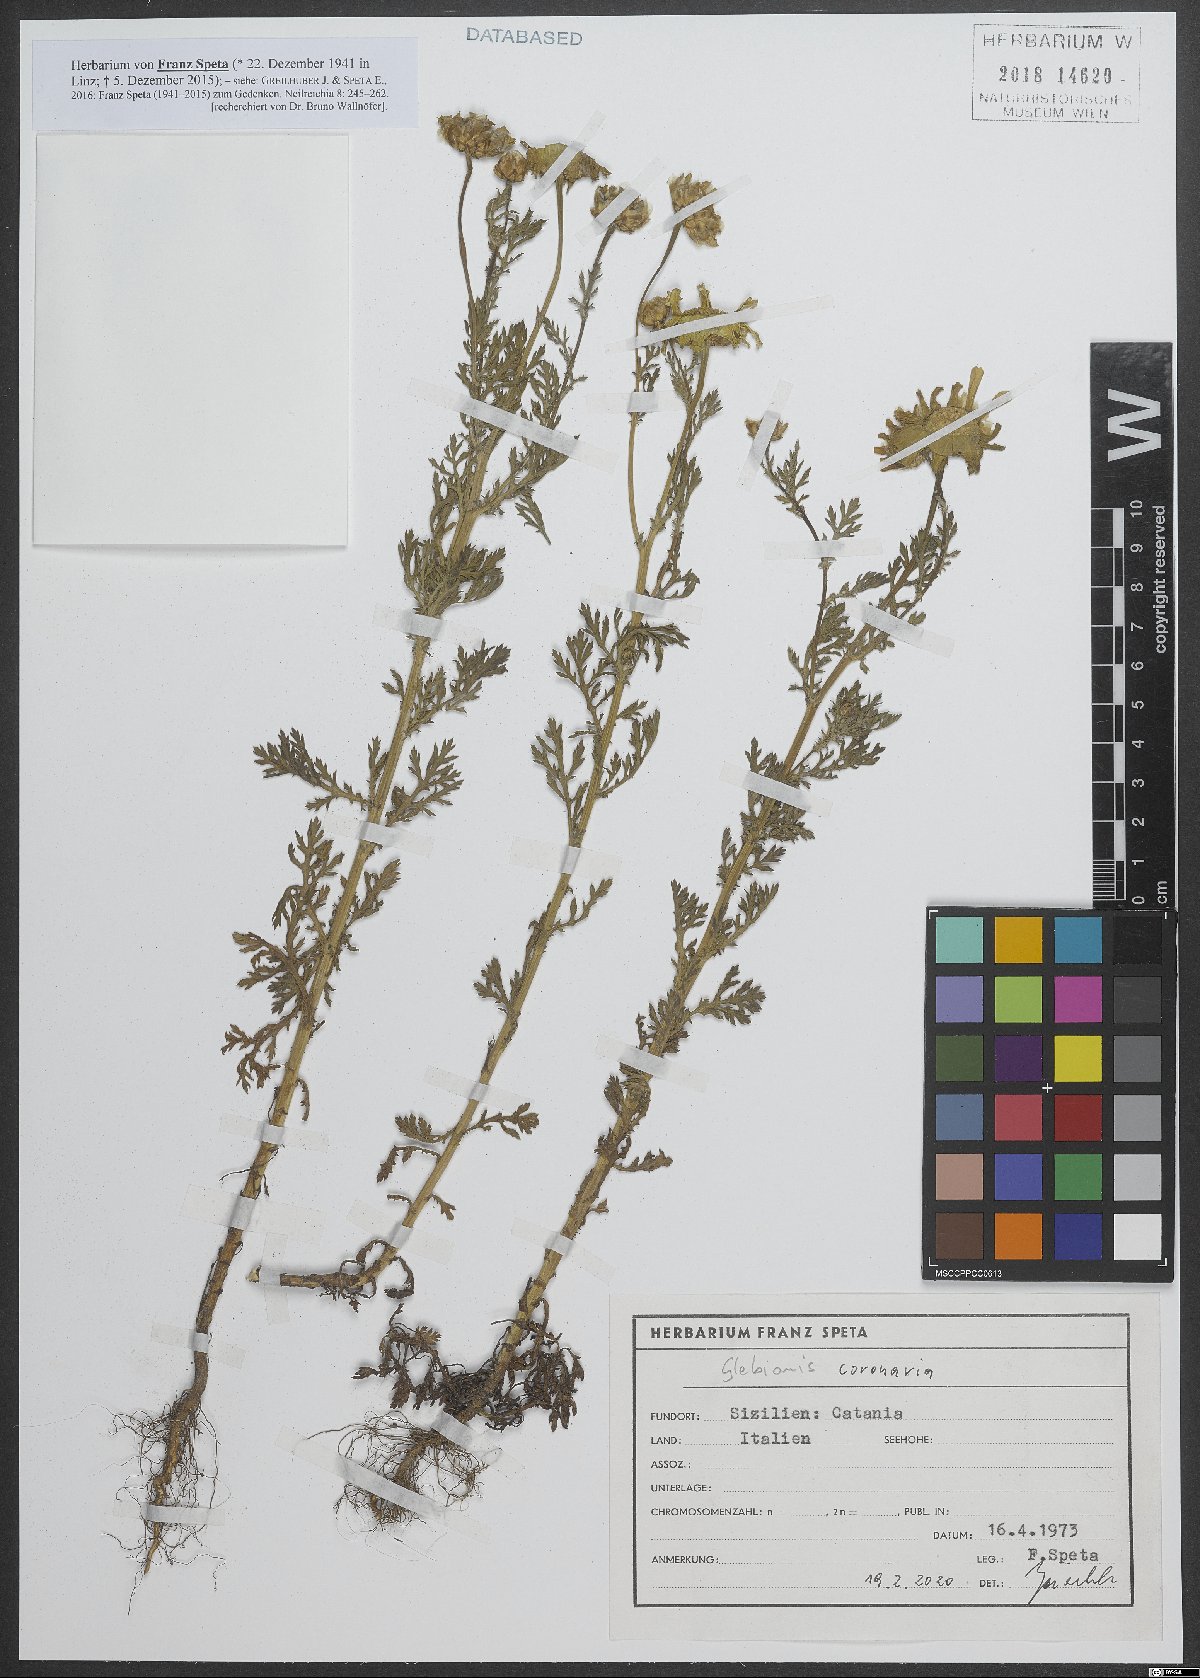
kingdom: Plantae
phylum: Tracheophyta
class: Magnoliopsida
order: Asterales
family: Asteraceae
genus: Glebionis
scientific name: Glebionis coronaria
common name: Crowndaisy
